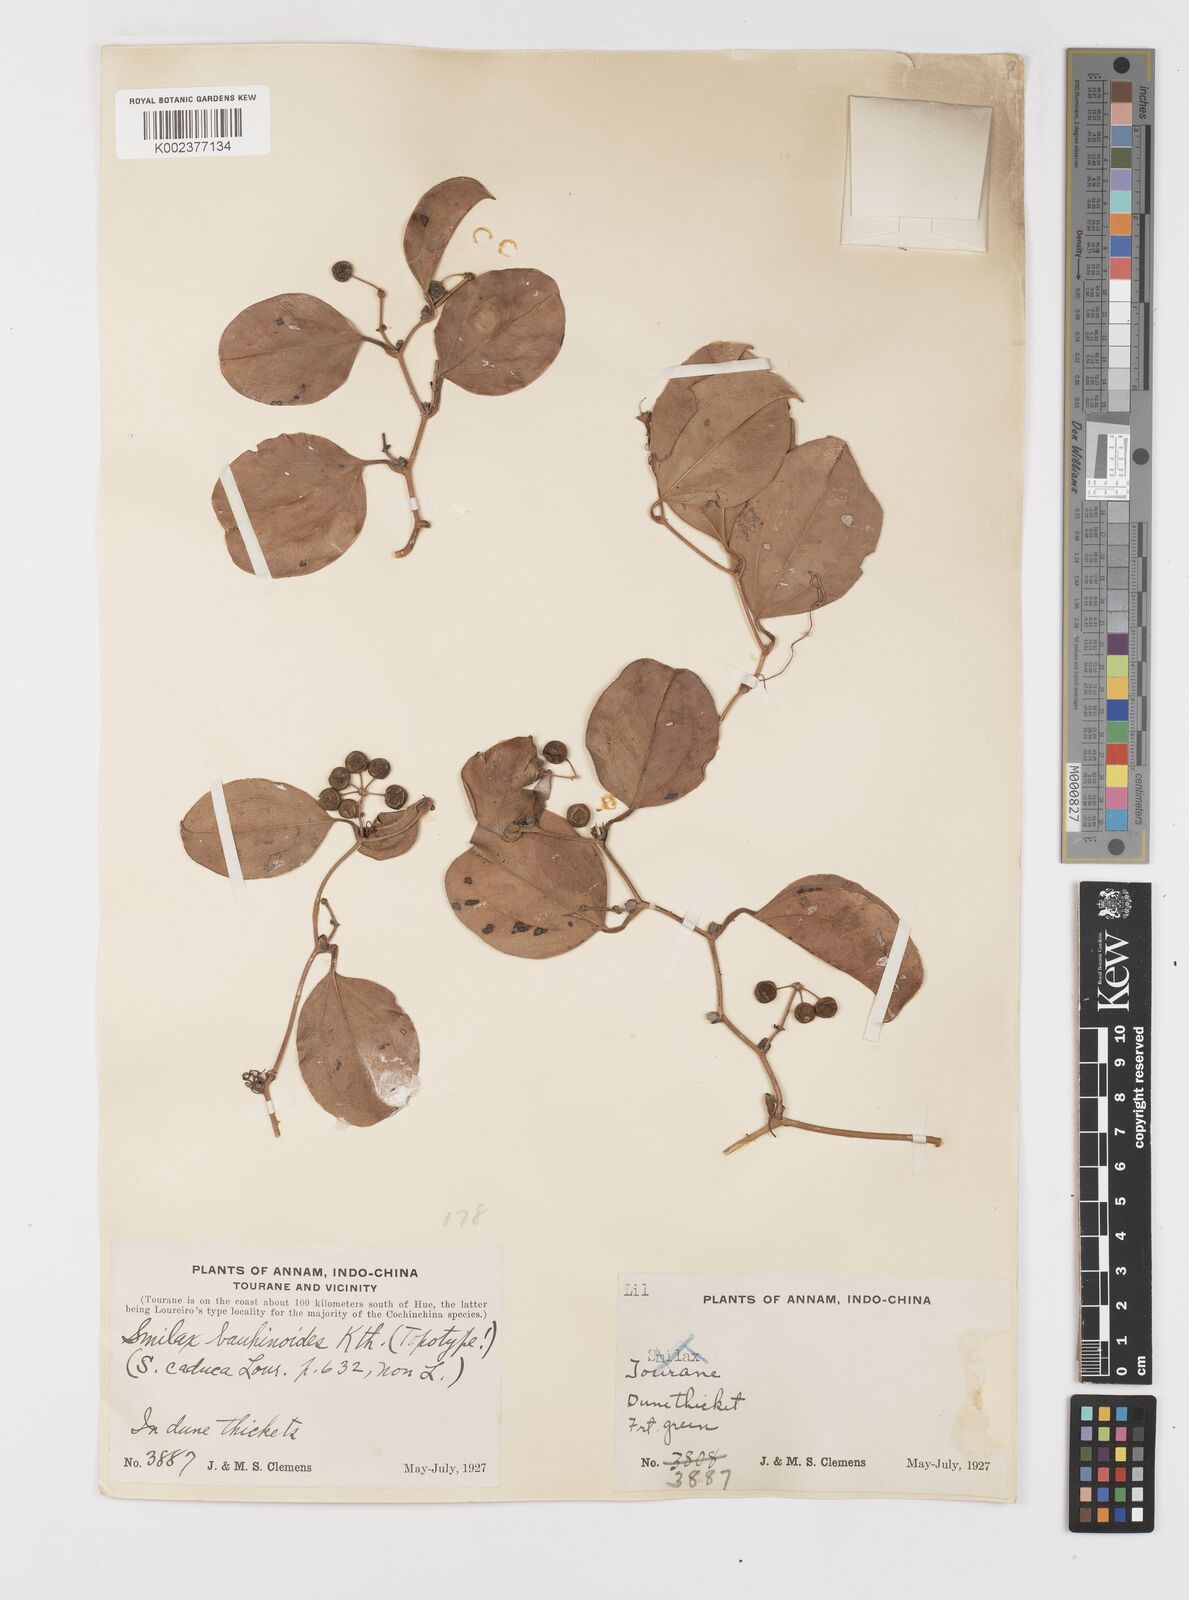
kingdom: Plantae
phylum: Tracheophyta
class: Liliopsida
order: Liliales
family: Smilacaceae
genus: Smilax
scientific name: Smilax bauhinioides
